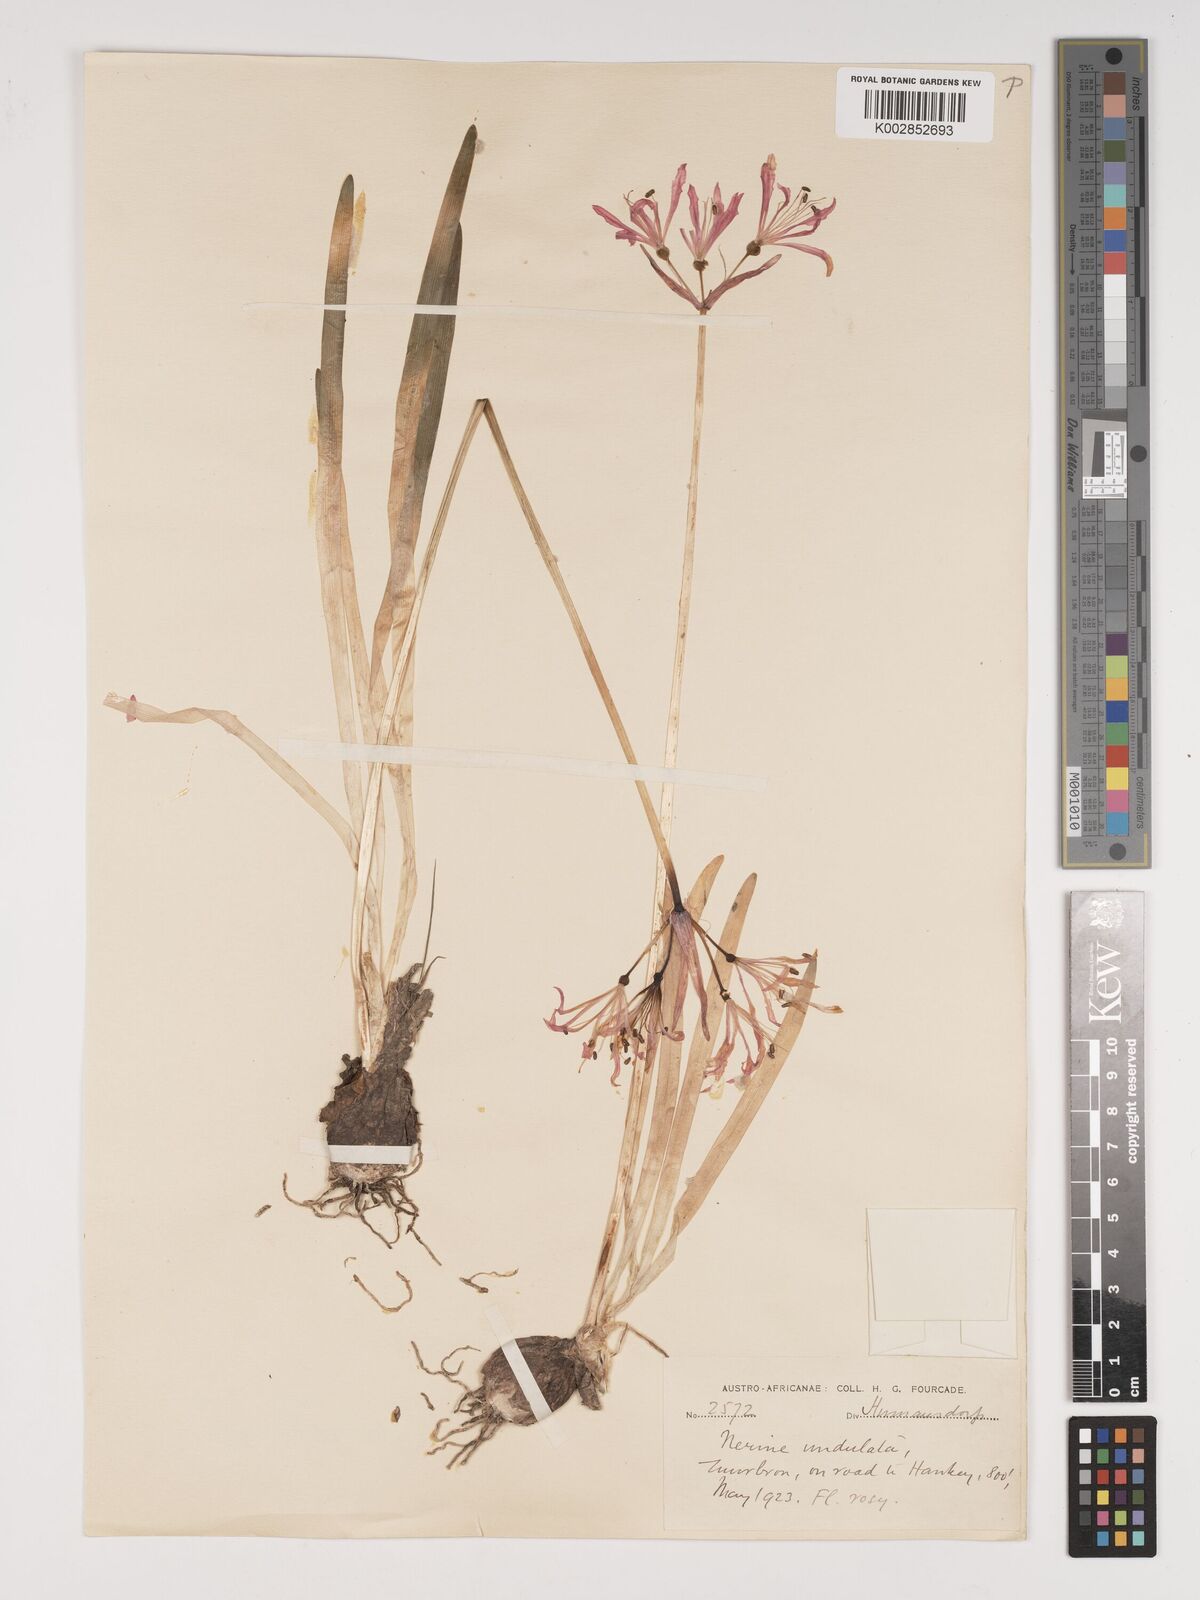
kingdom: Plantae
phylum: Tracheophyta
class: Liliopsida
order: Asparagales
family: Amaryllidaceae
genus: Nerine
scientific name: Nerine undulata
